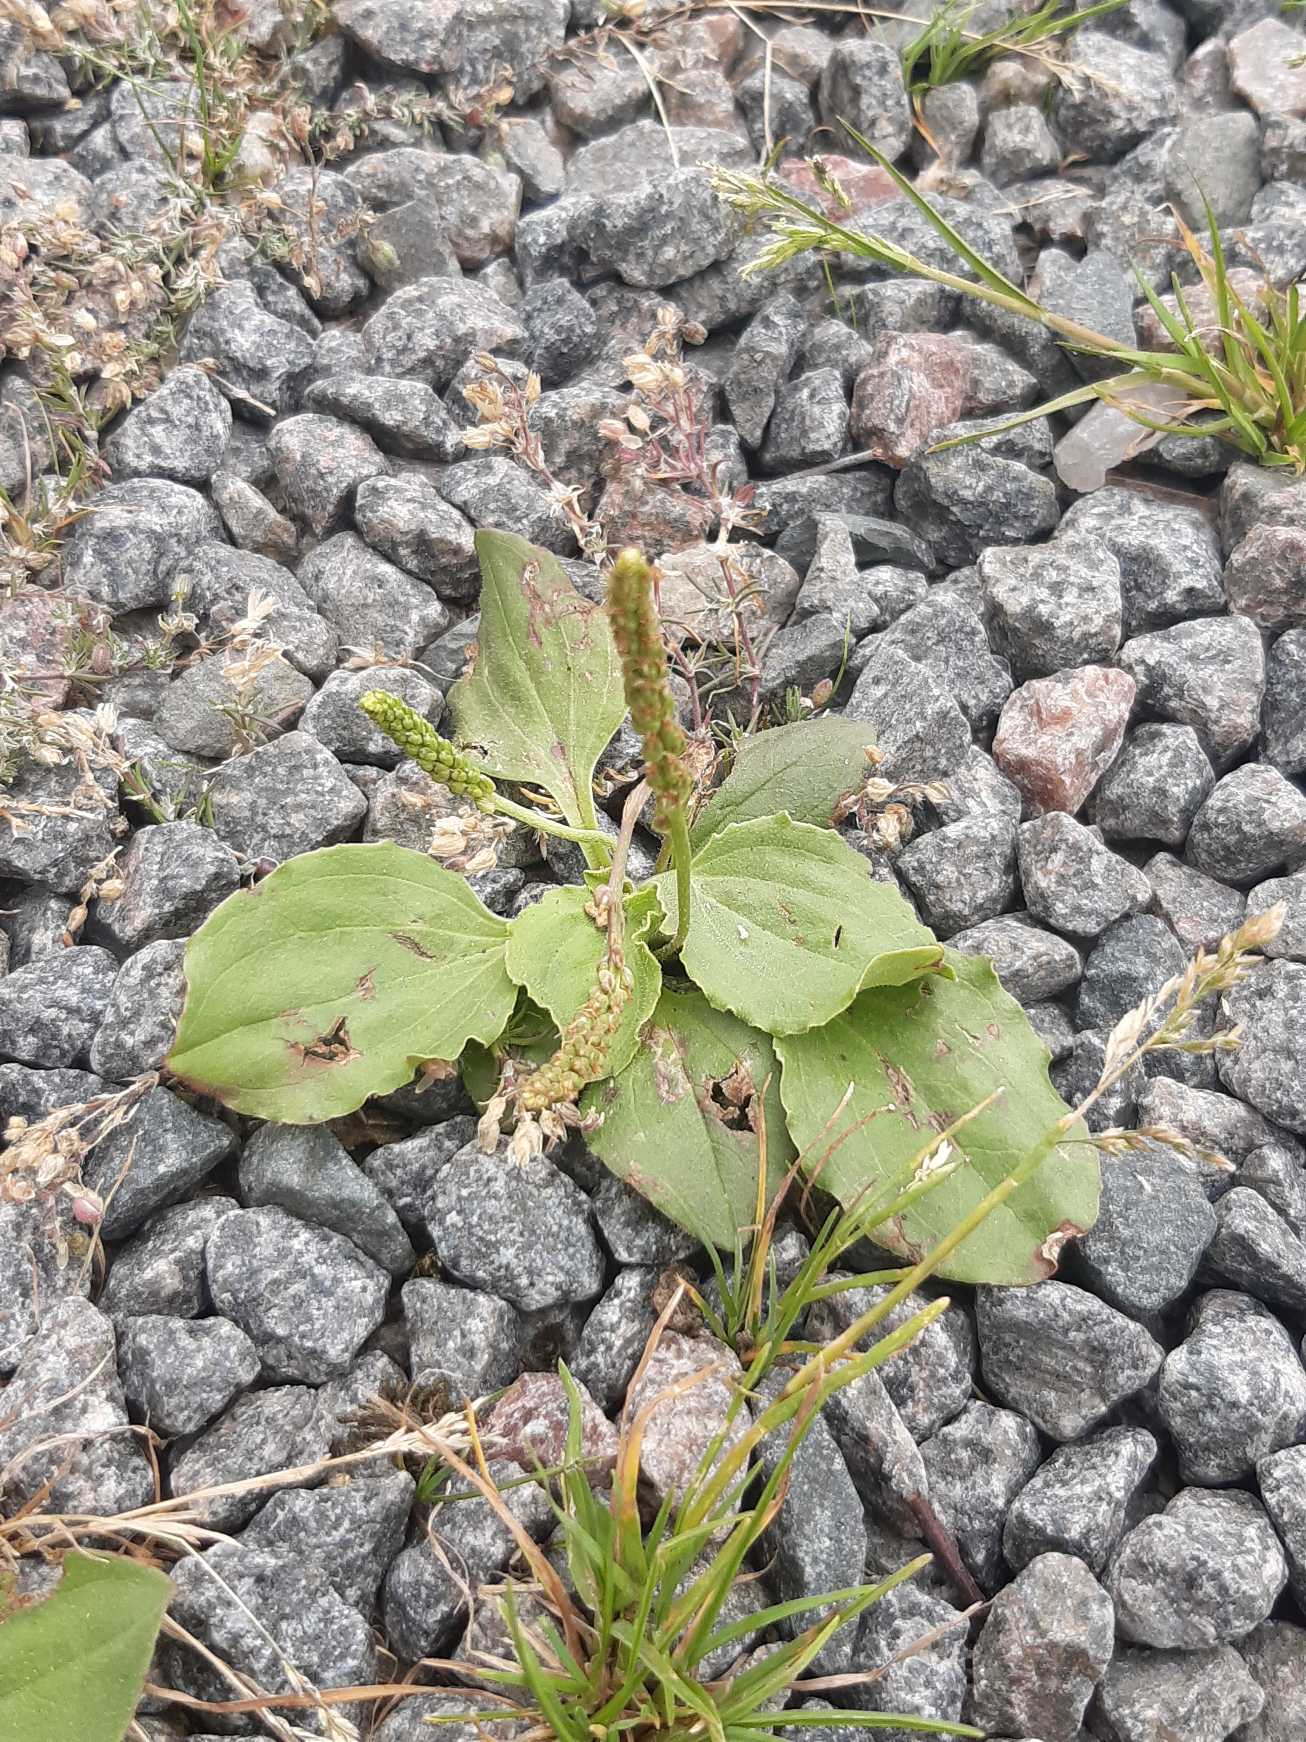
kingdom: Plantae
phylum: Tracheophyta
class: Magnoliopsida
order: Lamiales
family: Plantaginaceae
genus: Plantago
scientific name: Plantago major
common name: Glat vejbred
